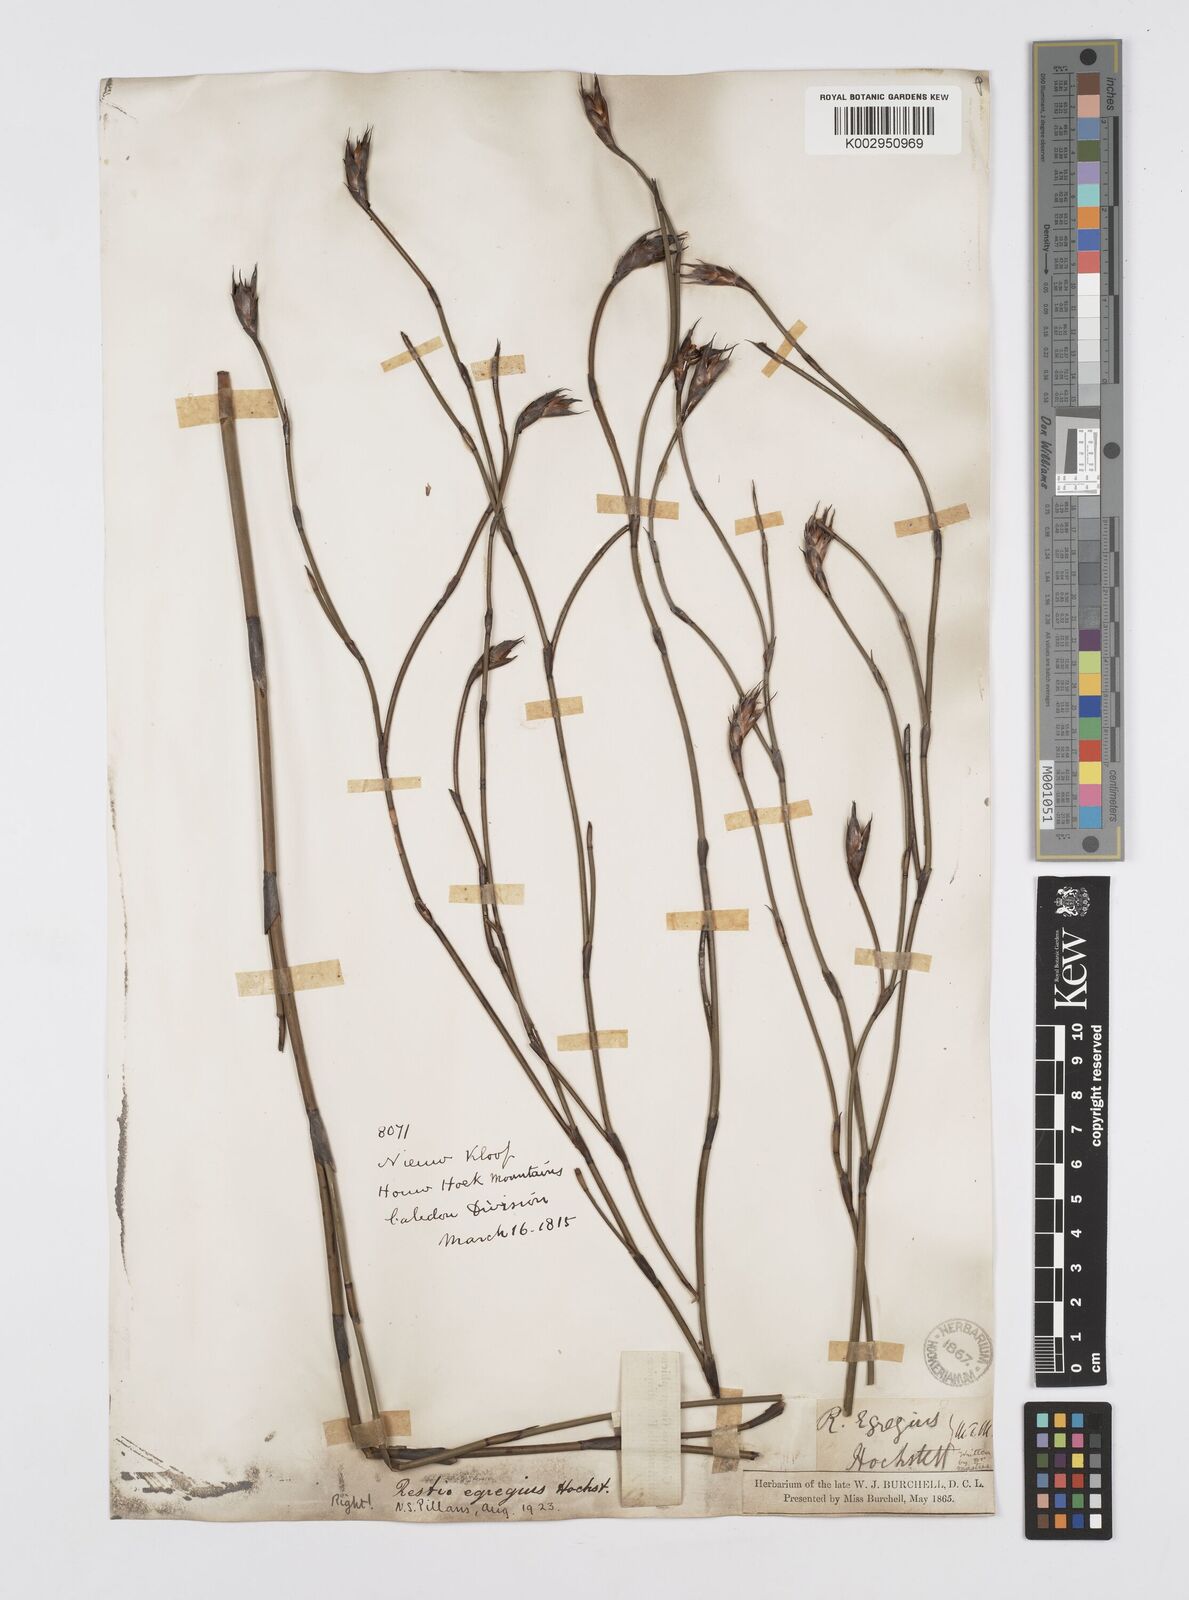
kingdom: Plantae
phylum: Tracheophyta
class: Liliopsida
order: Poales
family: Restionaceae
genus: Restio
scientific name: Restio egregius
